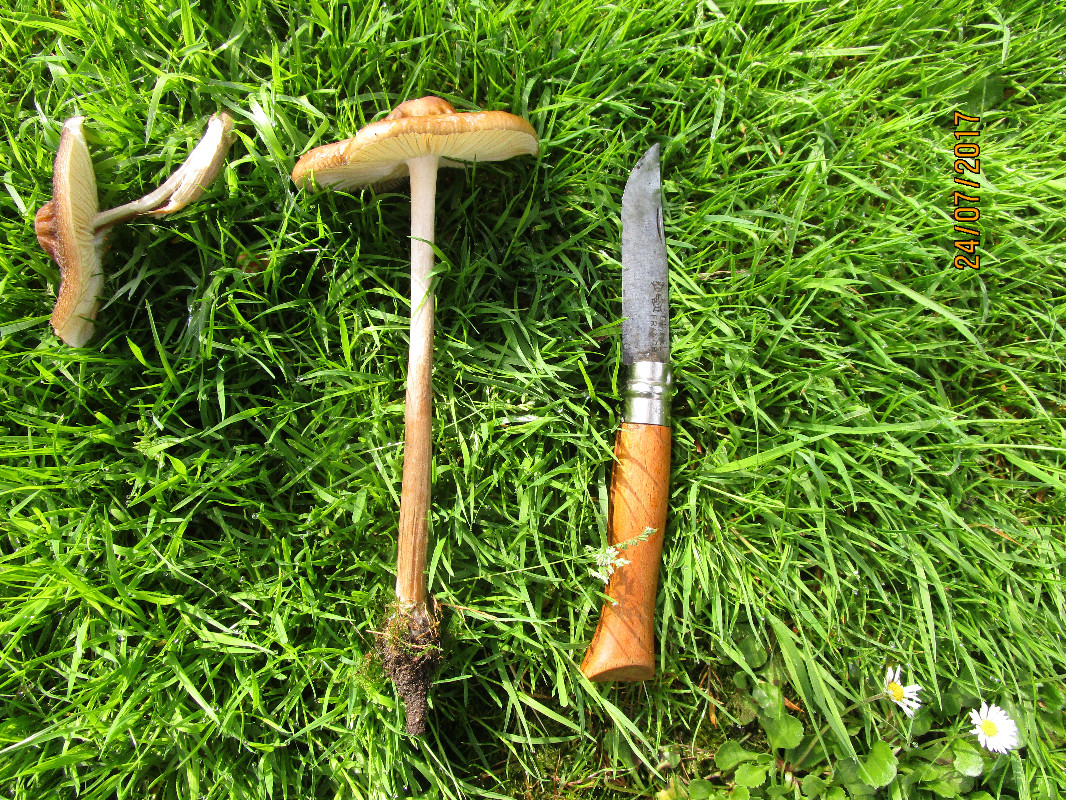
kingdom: Fungi
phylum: Basidiomycota
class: Agaricomycetes
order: Agaricales
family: Physalacriaceae
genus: Hymenopellis
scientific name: Hymenopellis radicata
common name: almindelig pælerodshat
